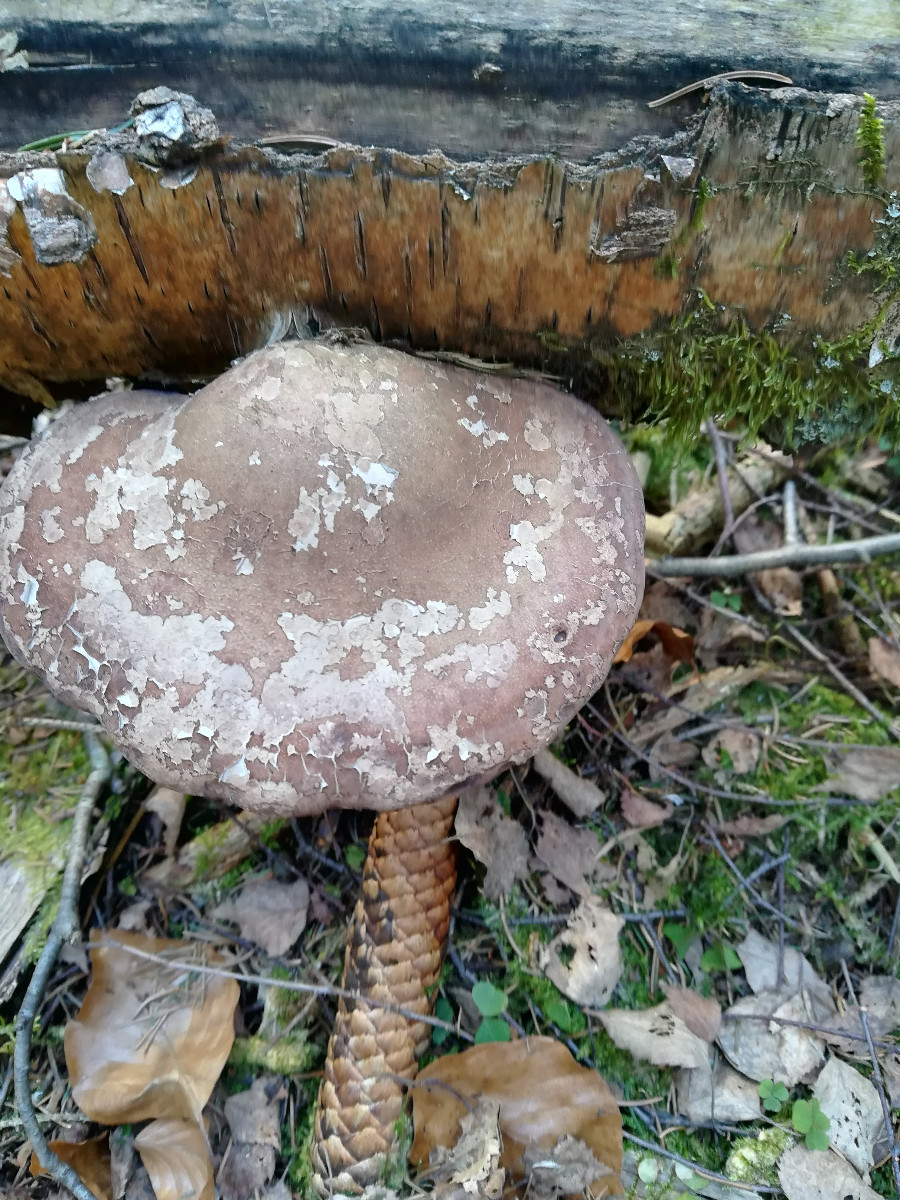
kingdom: Fungi
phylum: Basidiomycota
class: Agaricomycetes
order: Polyporales
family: Fomitopsidaceae
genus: Fomitopsis
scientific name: Fomitopsis betulina
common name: birkeporesvamp
